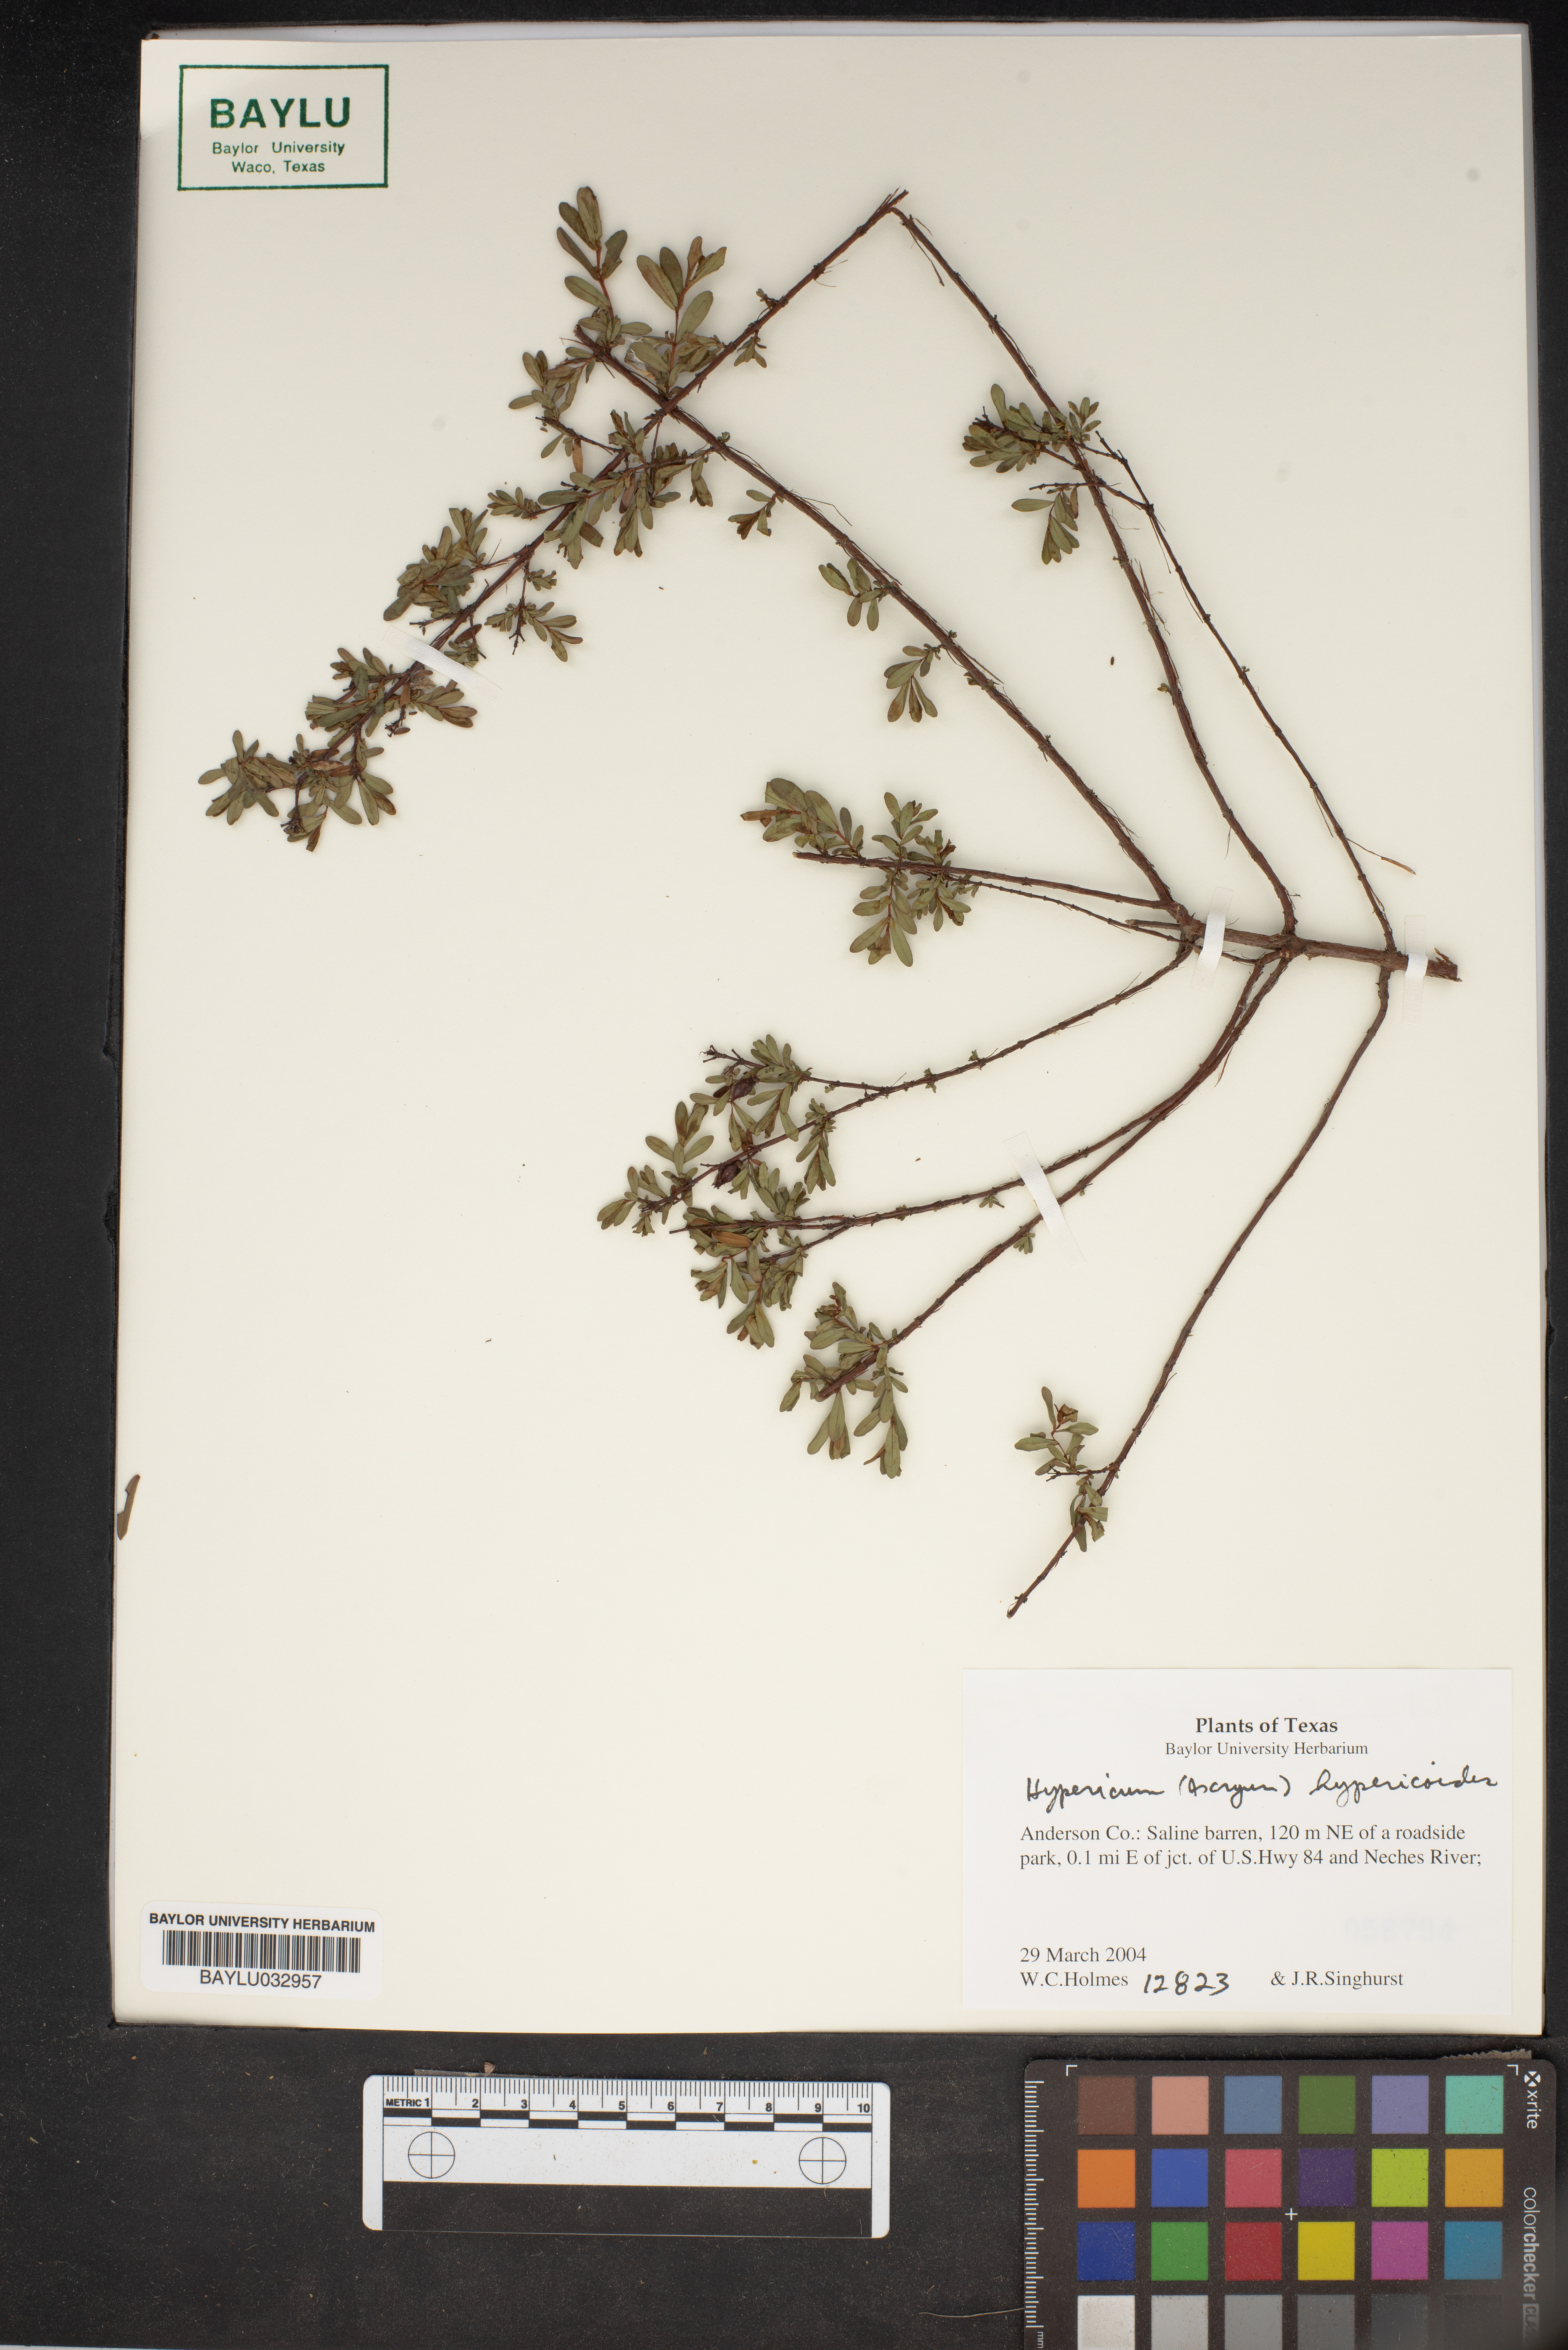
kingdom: Plantae
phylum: Tracheophyta
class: Magnoliopsida
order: Malpighiales
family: Hypericaceae
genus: Hypericum
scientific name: Hypericum hypericoides
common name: St. andrew's cross
